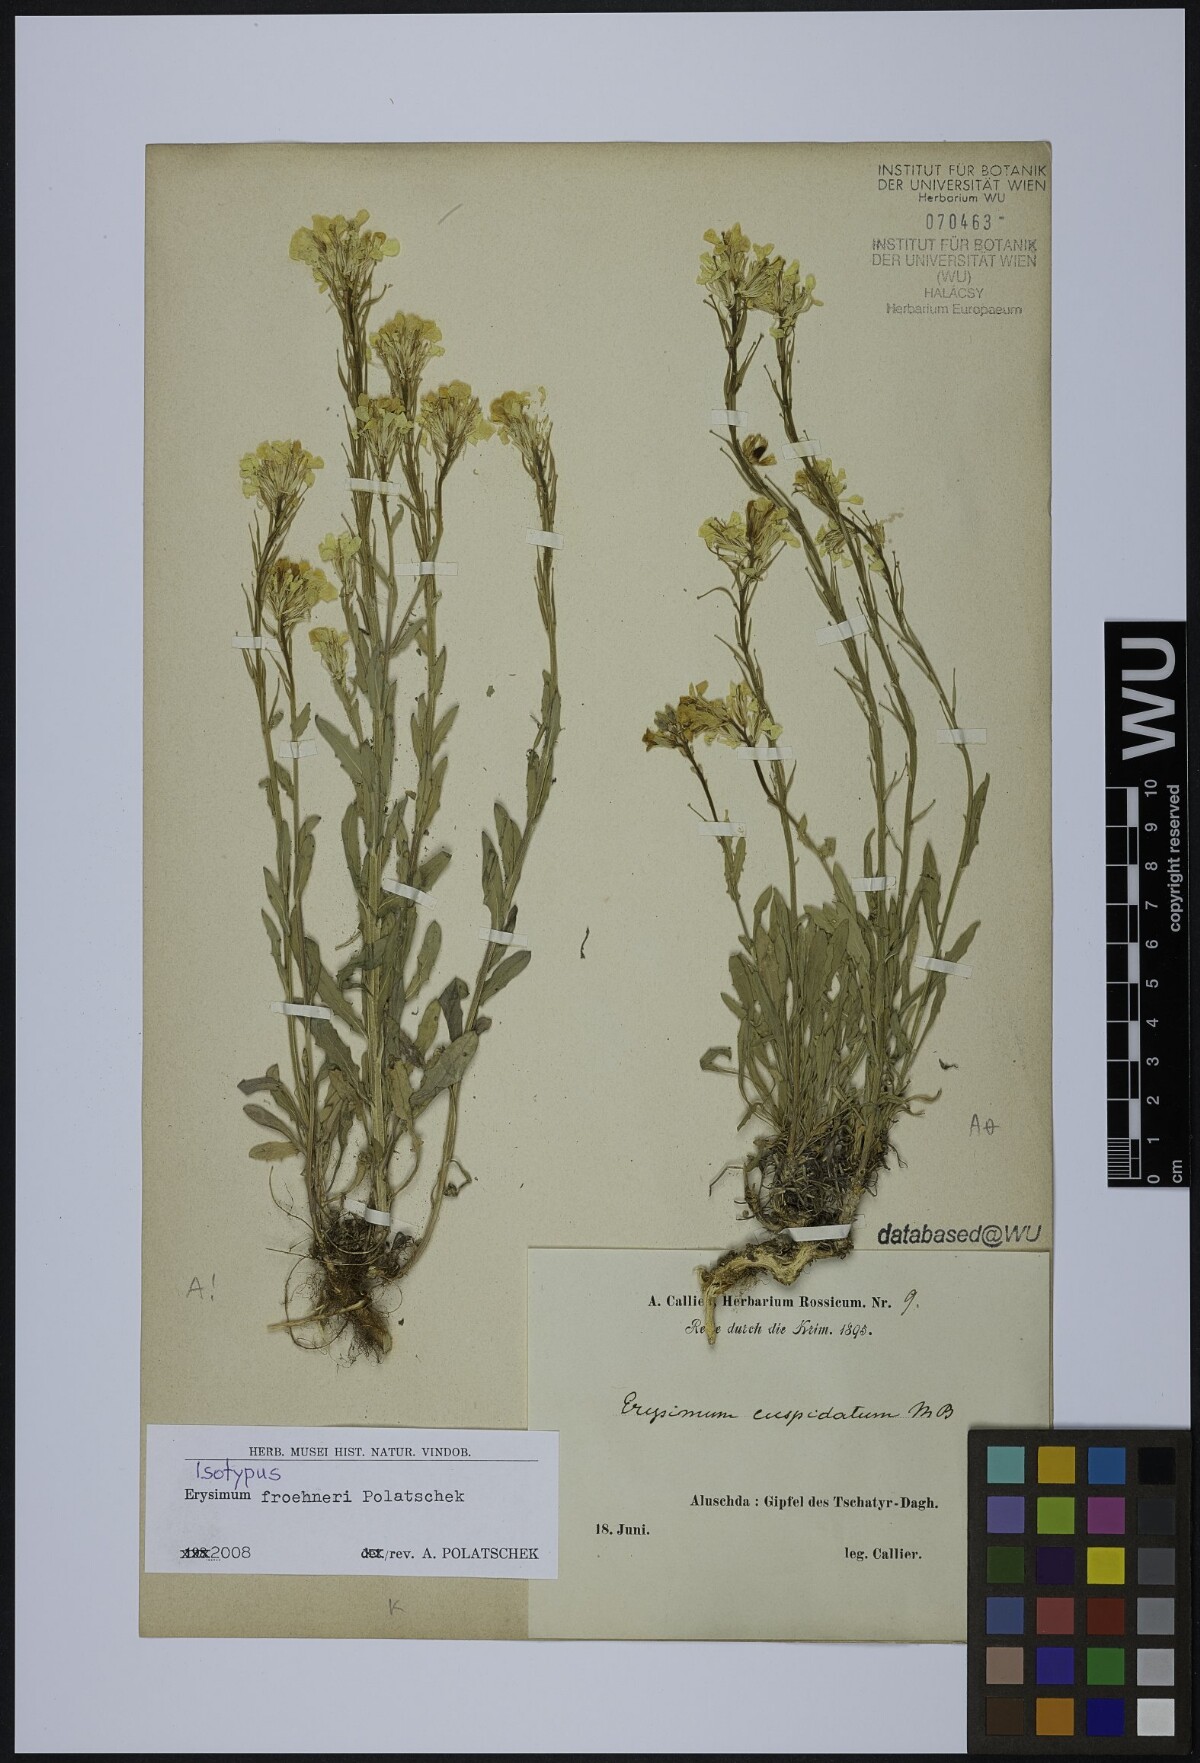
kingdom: Plantae
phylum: Tracheophyta
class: Magnoliopsida
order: Brassicales
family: Brassicaceae
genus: Erysimum
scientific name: Erysimum froehneri
